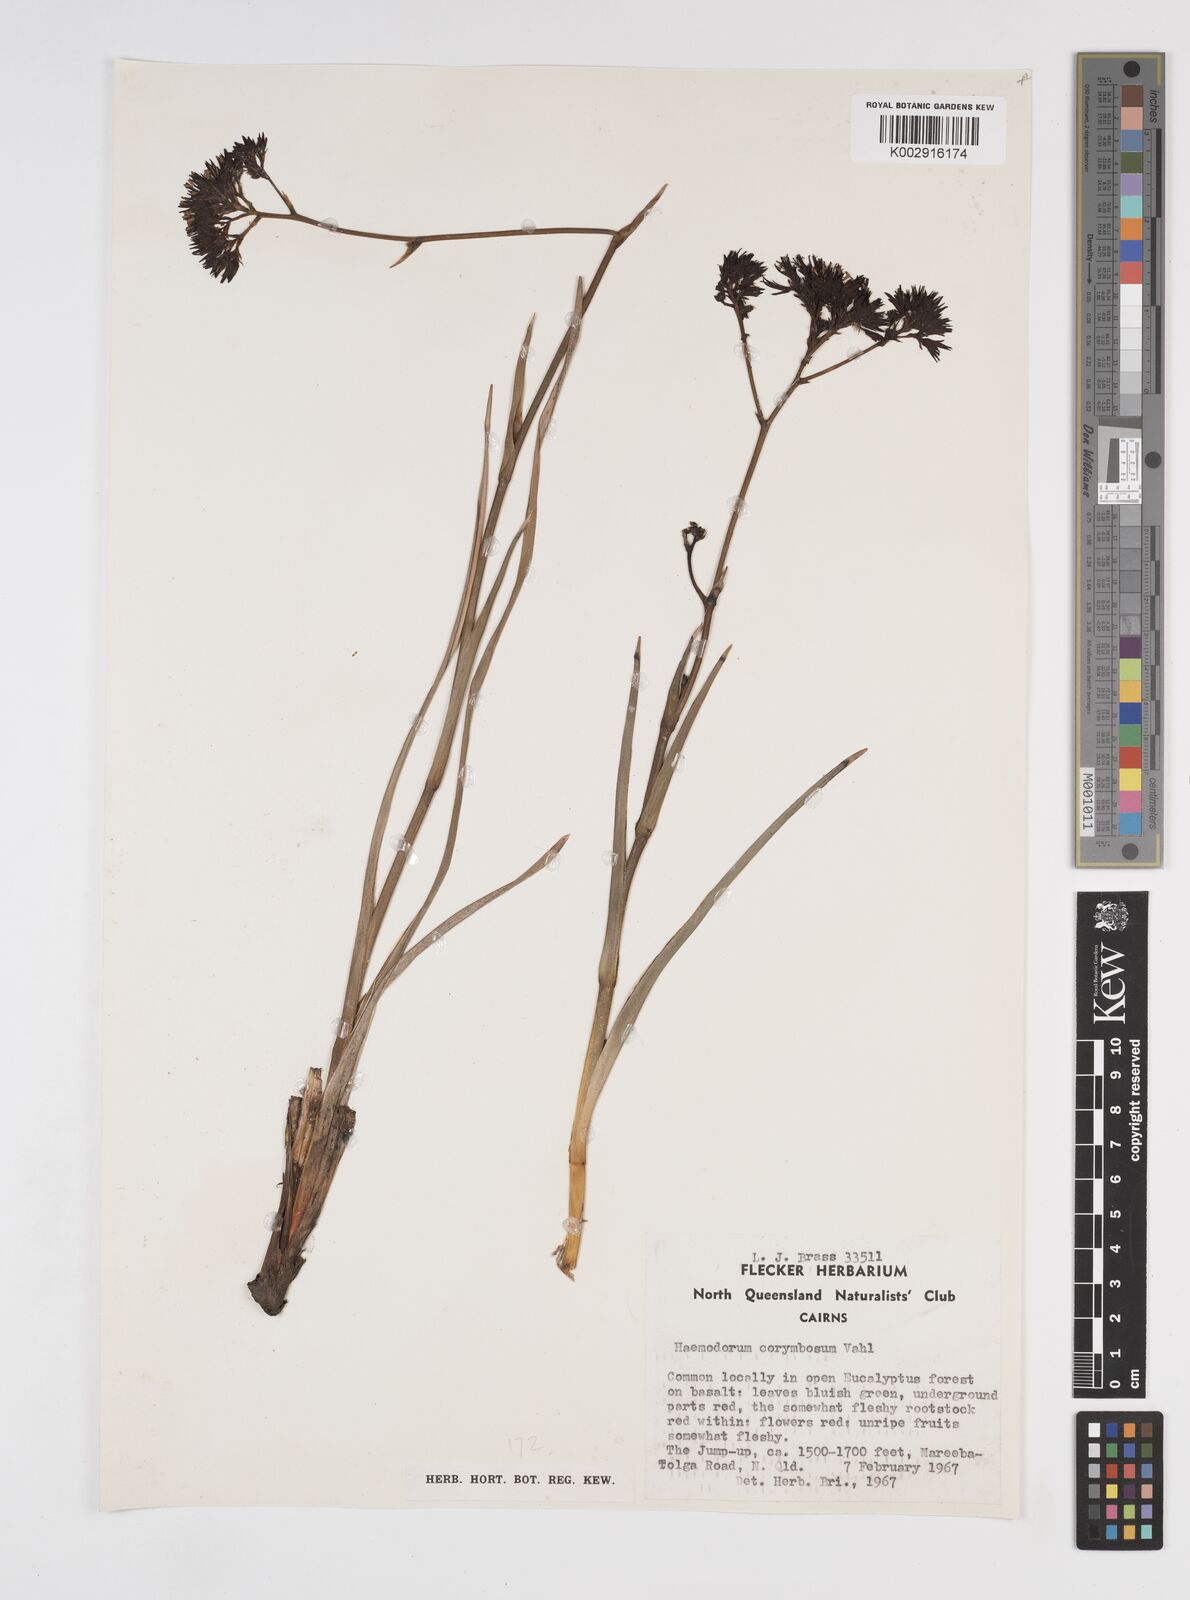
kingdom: Plantae
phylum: Tracheophyta
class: Liliopsida
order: Commelinales
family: Haemodoraceae
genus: Haemodorum
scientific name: Haemodorum corymbosum
